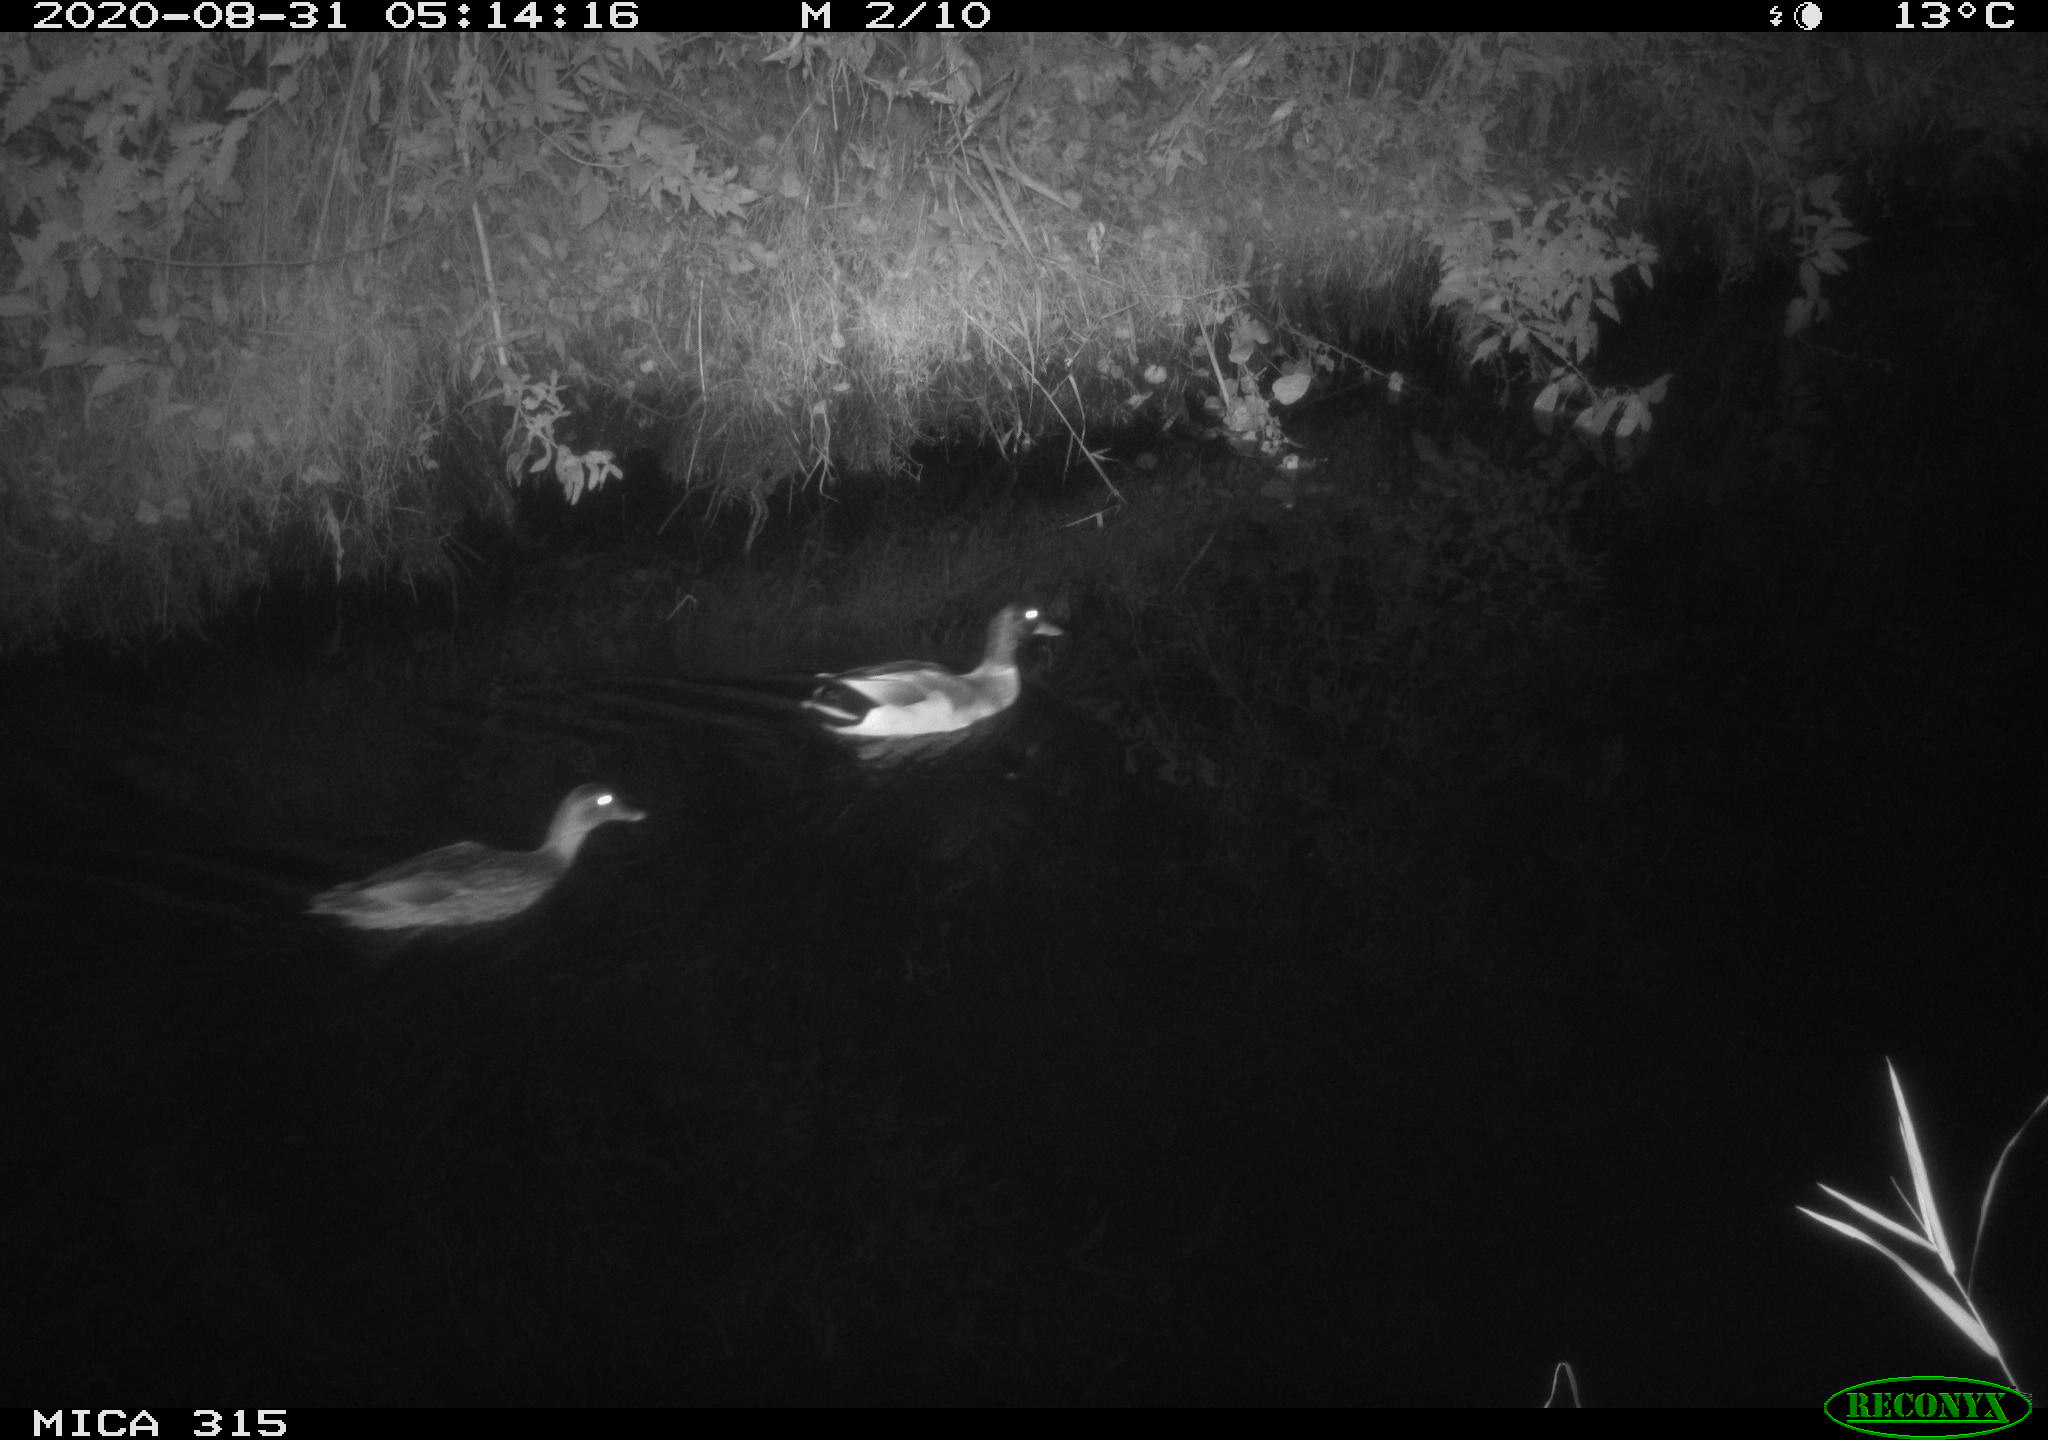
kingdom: Animalia
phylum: Chordata
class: Aves
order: Anseriformes
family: Anatidae
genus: Anas
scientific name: Anas platyrhynchos
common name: Mallard
